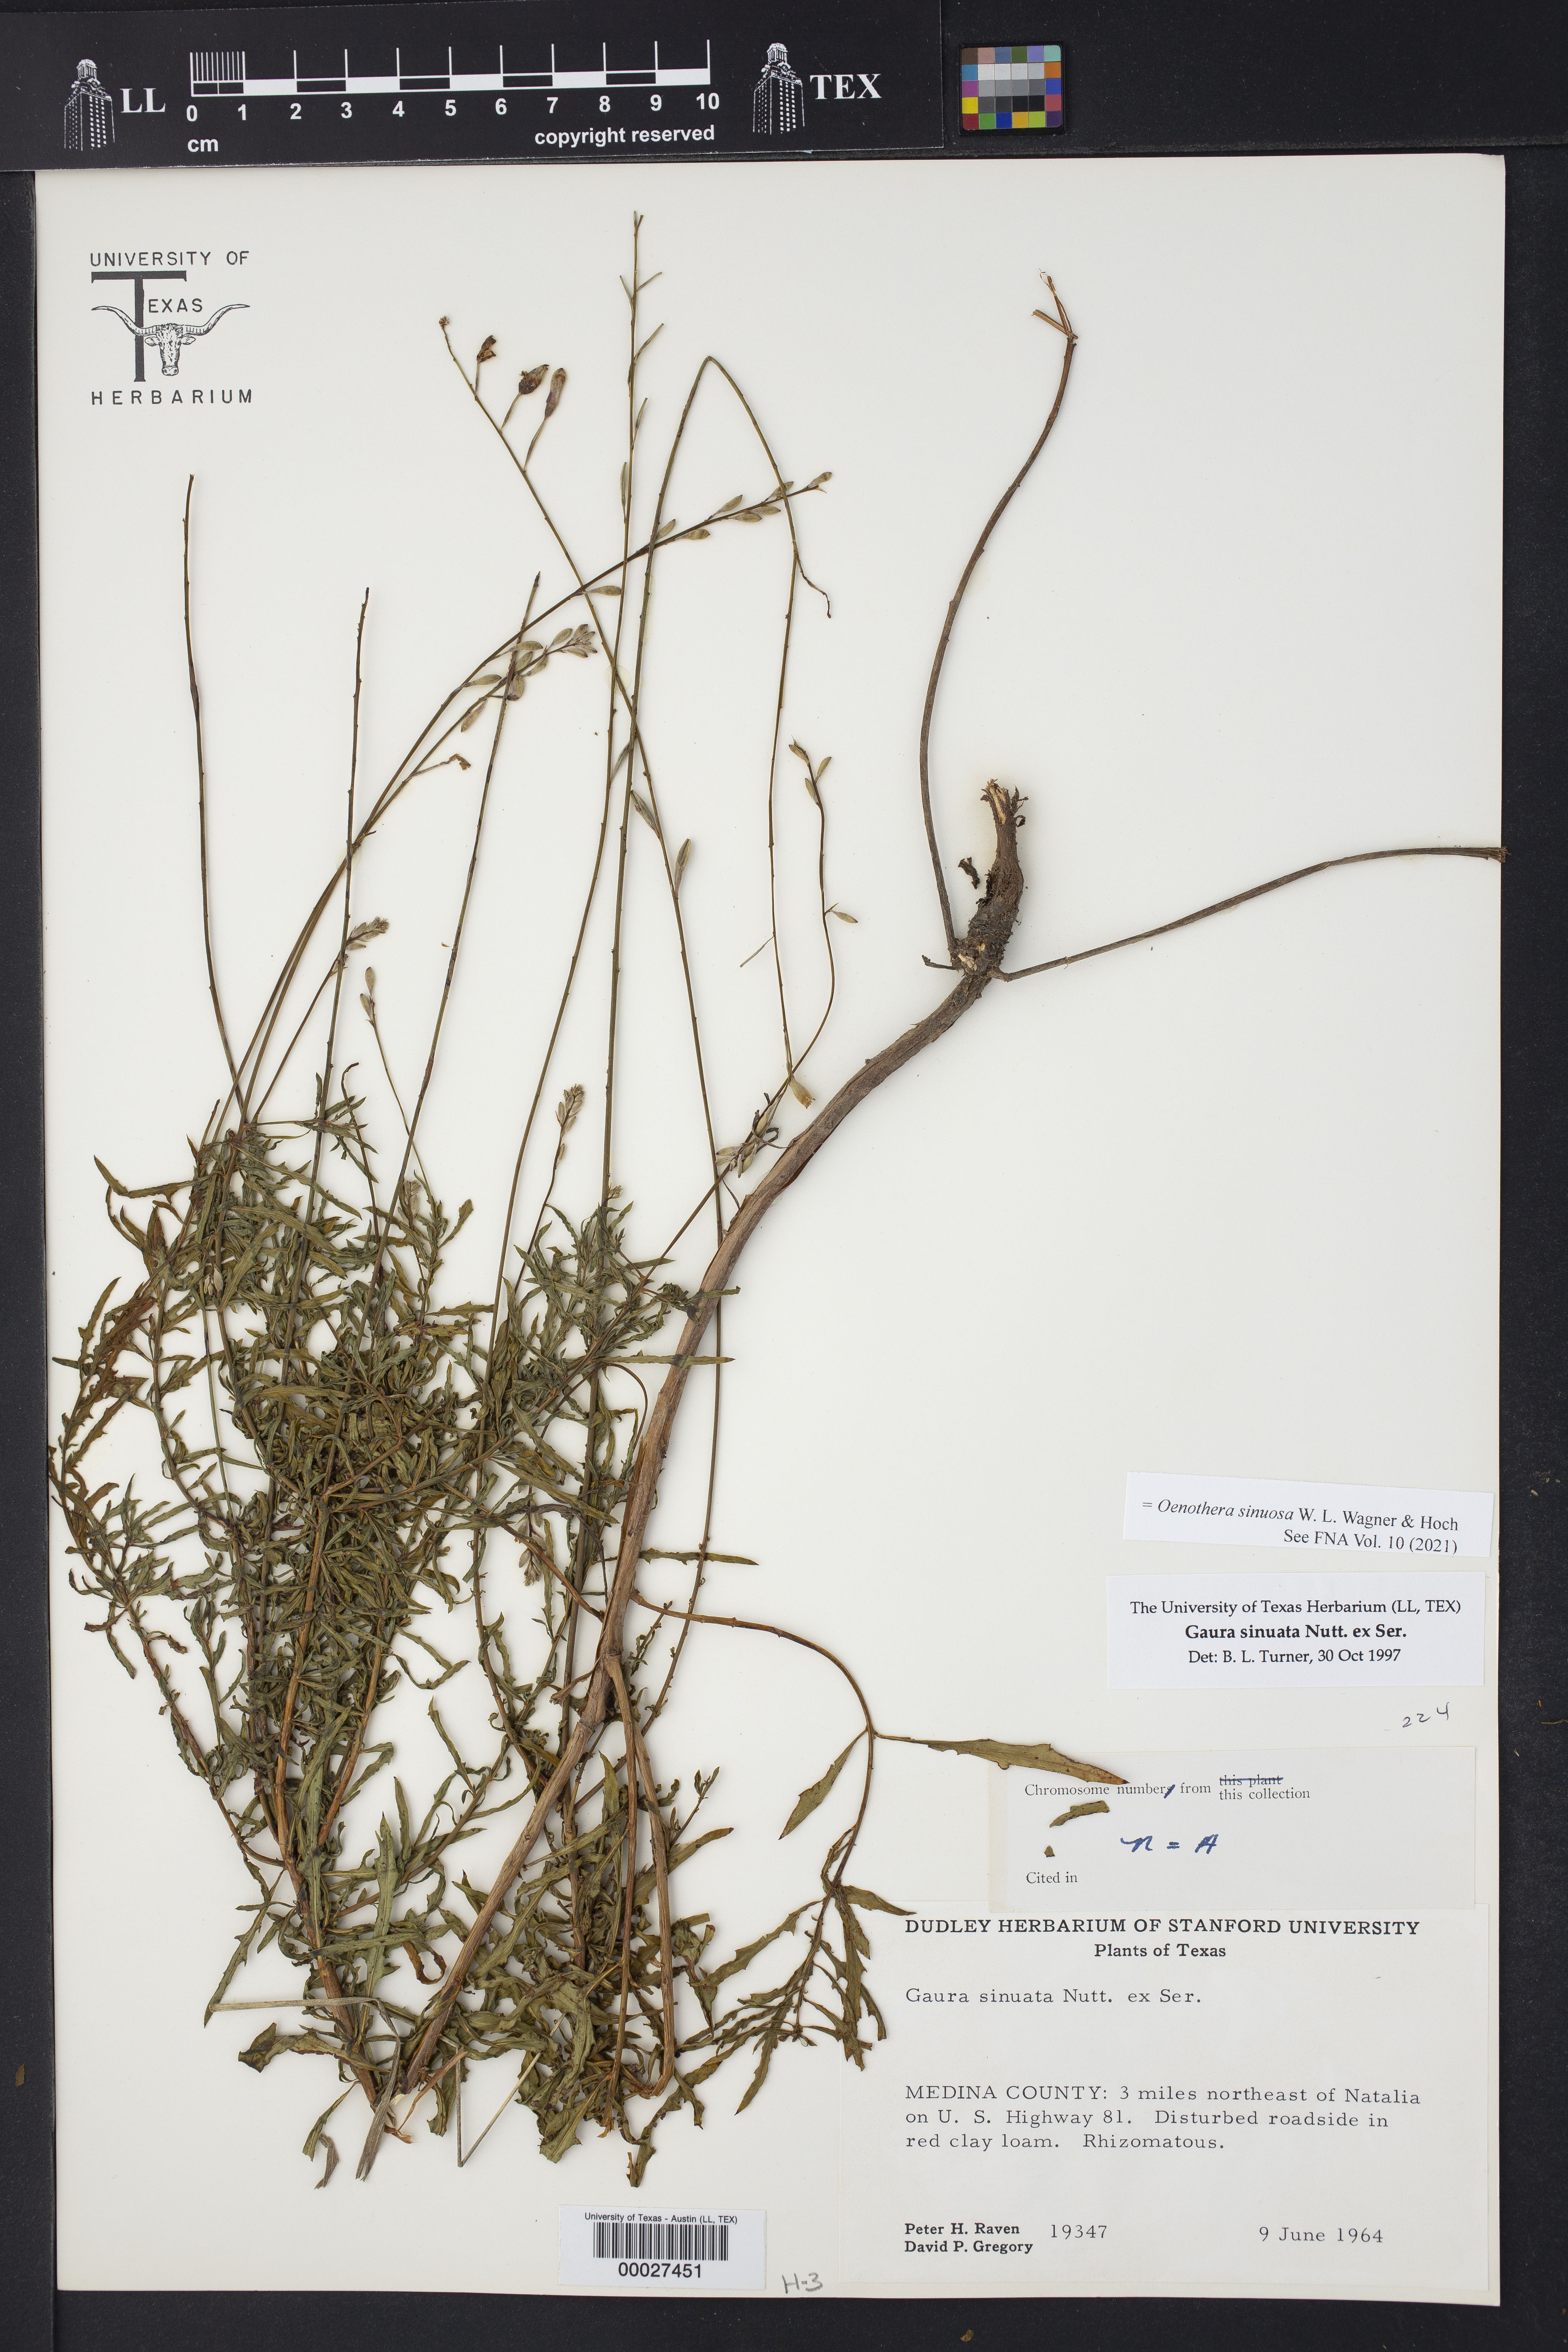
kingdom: Plantae
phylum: Tracheophyta
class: Magnoliopsida
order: Myrtales
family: Onagraceae
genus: Oenothera
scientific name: Oenothera sinuosa
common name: Wavyleaf beeblossom
